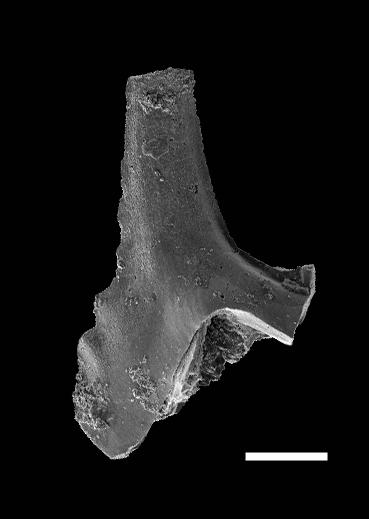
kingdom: Animalia
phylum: Chordata
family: Kockelellidae
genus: Kockelella
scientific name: Kockelella
